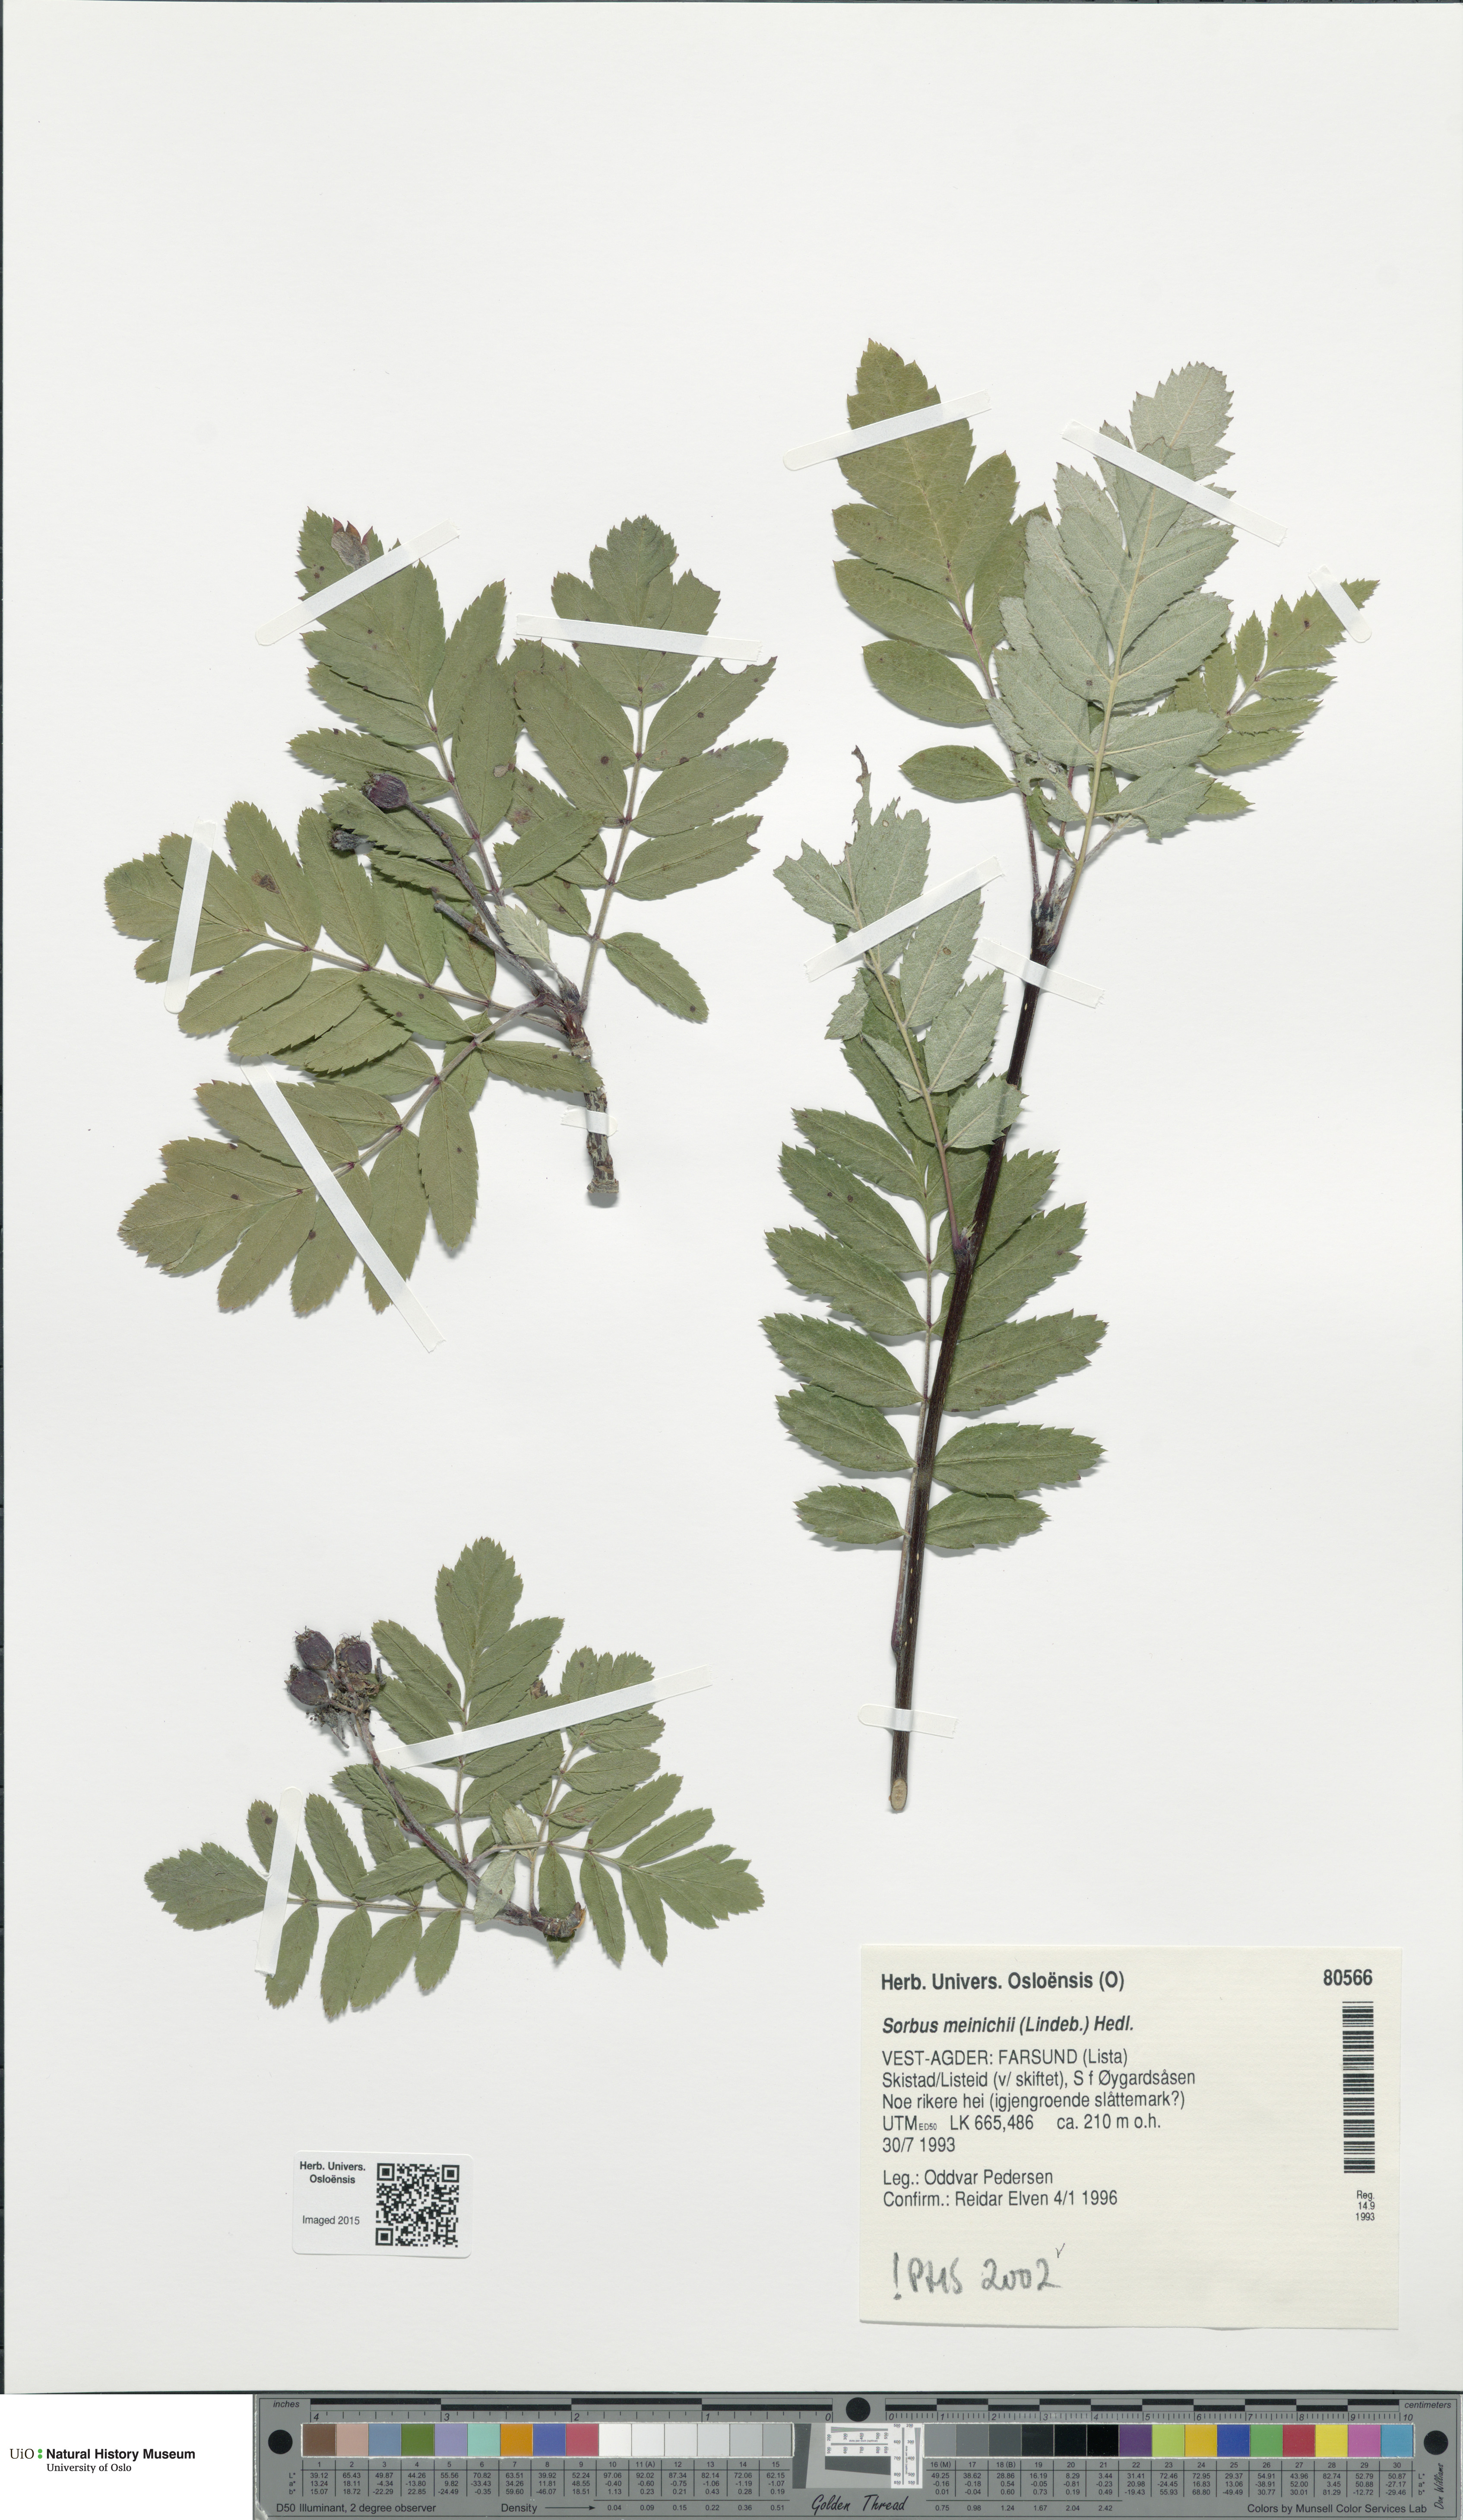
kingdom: Plantae
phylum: Tracheophyta
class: Magnoliopsida
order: Rosales
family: Rosaceae
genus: Hedlundia
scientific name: Hedlundia meinichii
